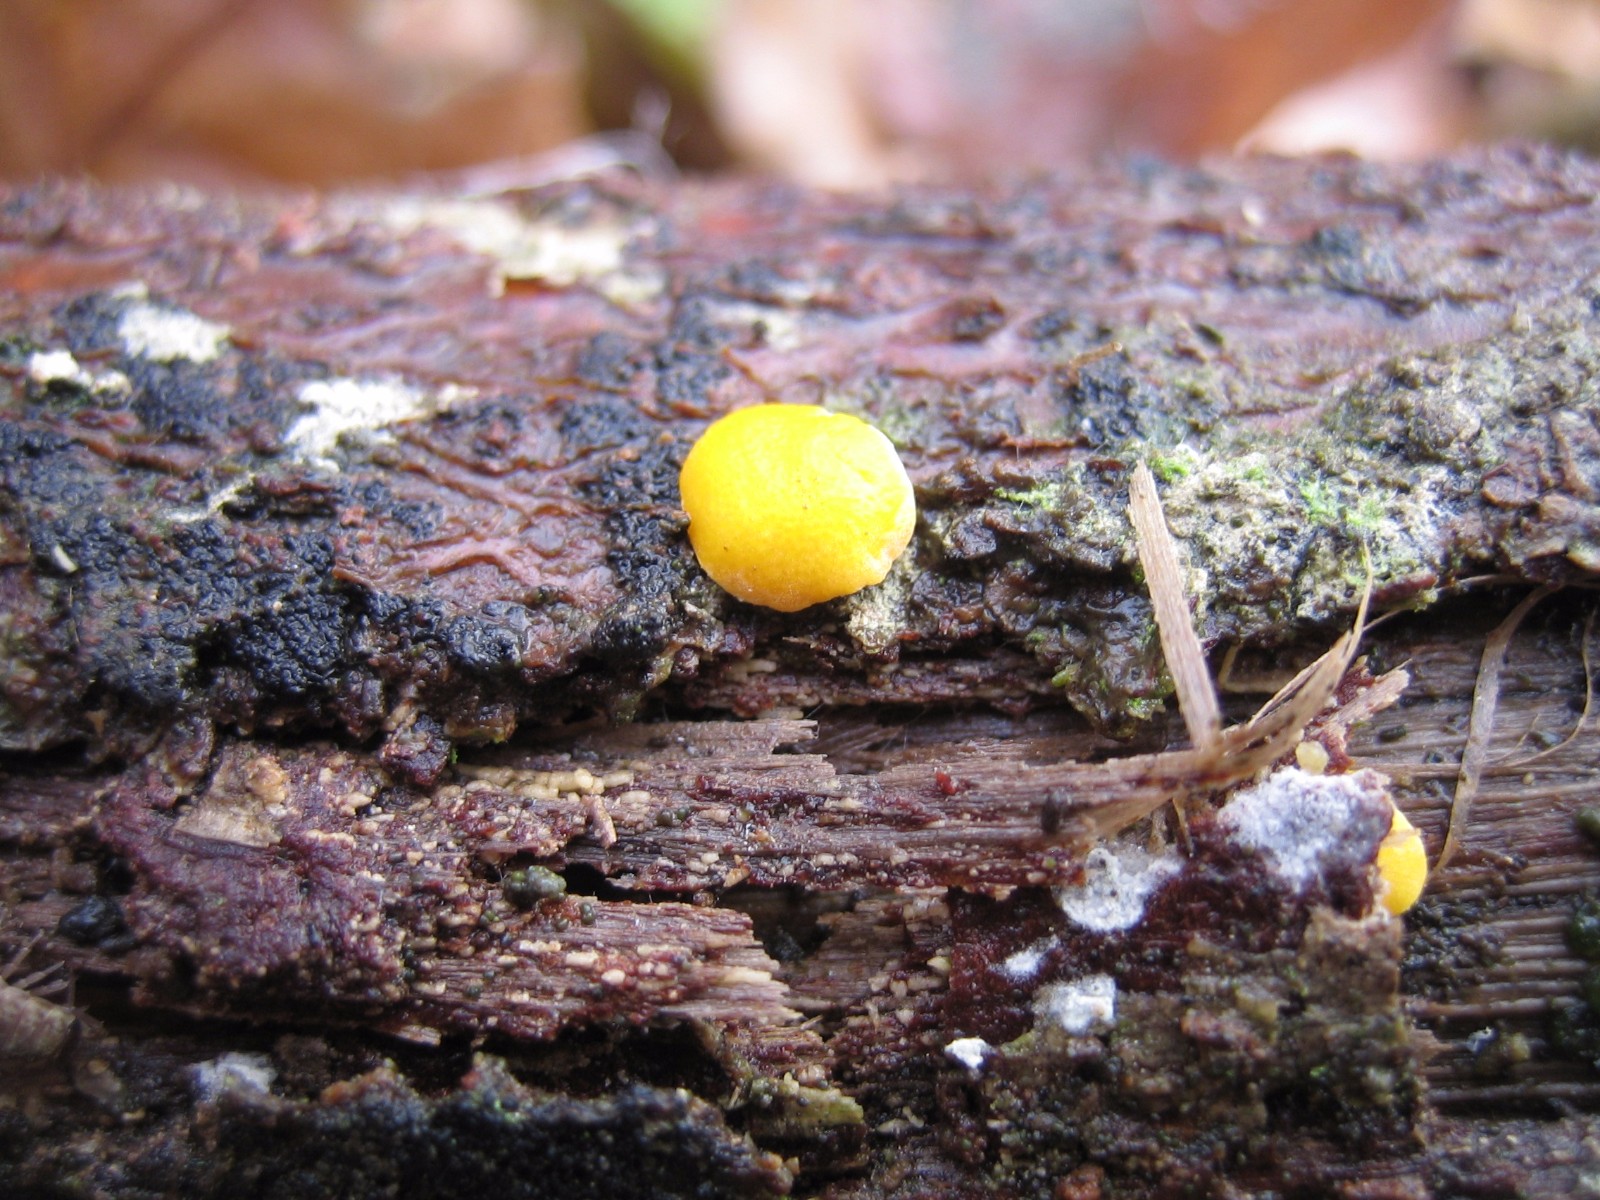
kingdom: Fungi
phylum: Ascomycota
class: Sordariomycetes
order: Hypocreales
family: Hypocreaceae
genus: Trichoderma
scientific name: Trichoderma aureoviride
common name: æggegul kødkerne
